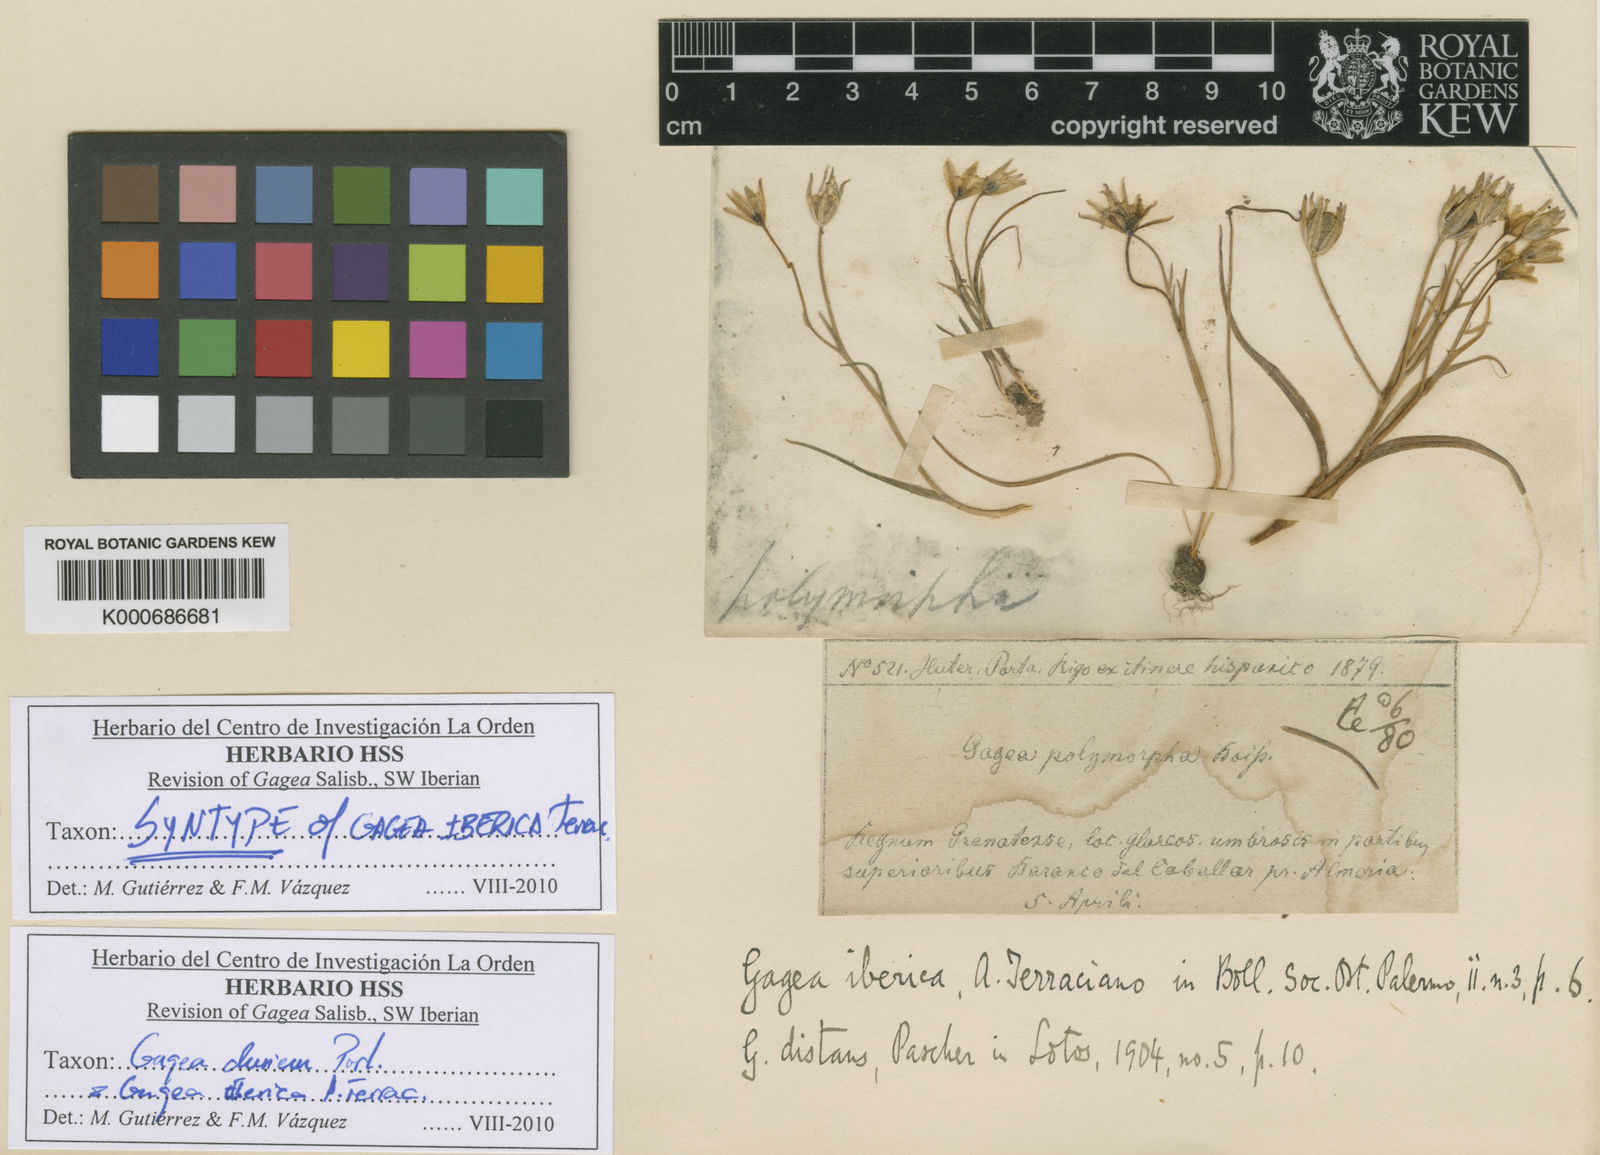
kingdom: Plantae
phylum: Tracheophyta
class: Liliopsida
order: Liliales
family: Liliaceae
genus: Gagea
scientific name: Gagea
